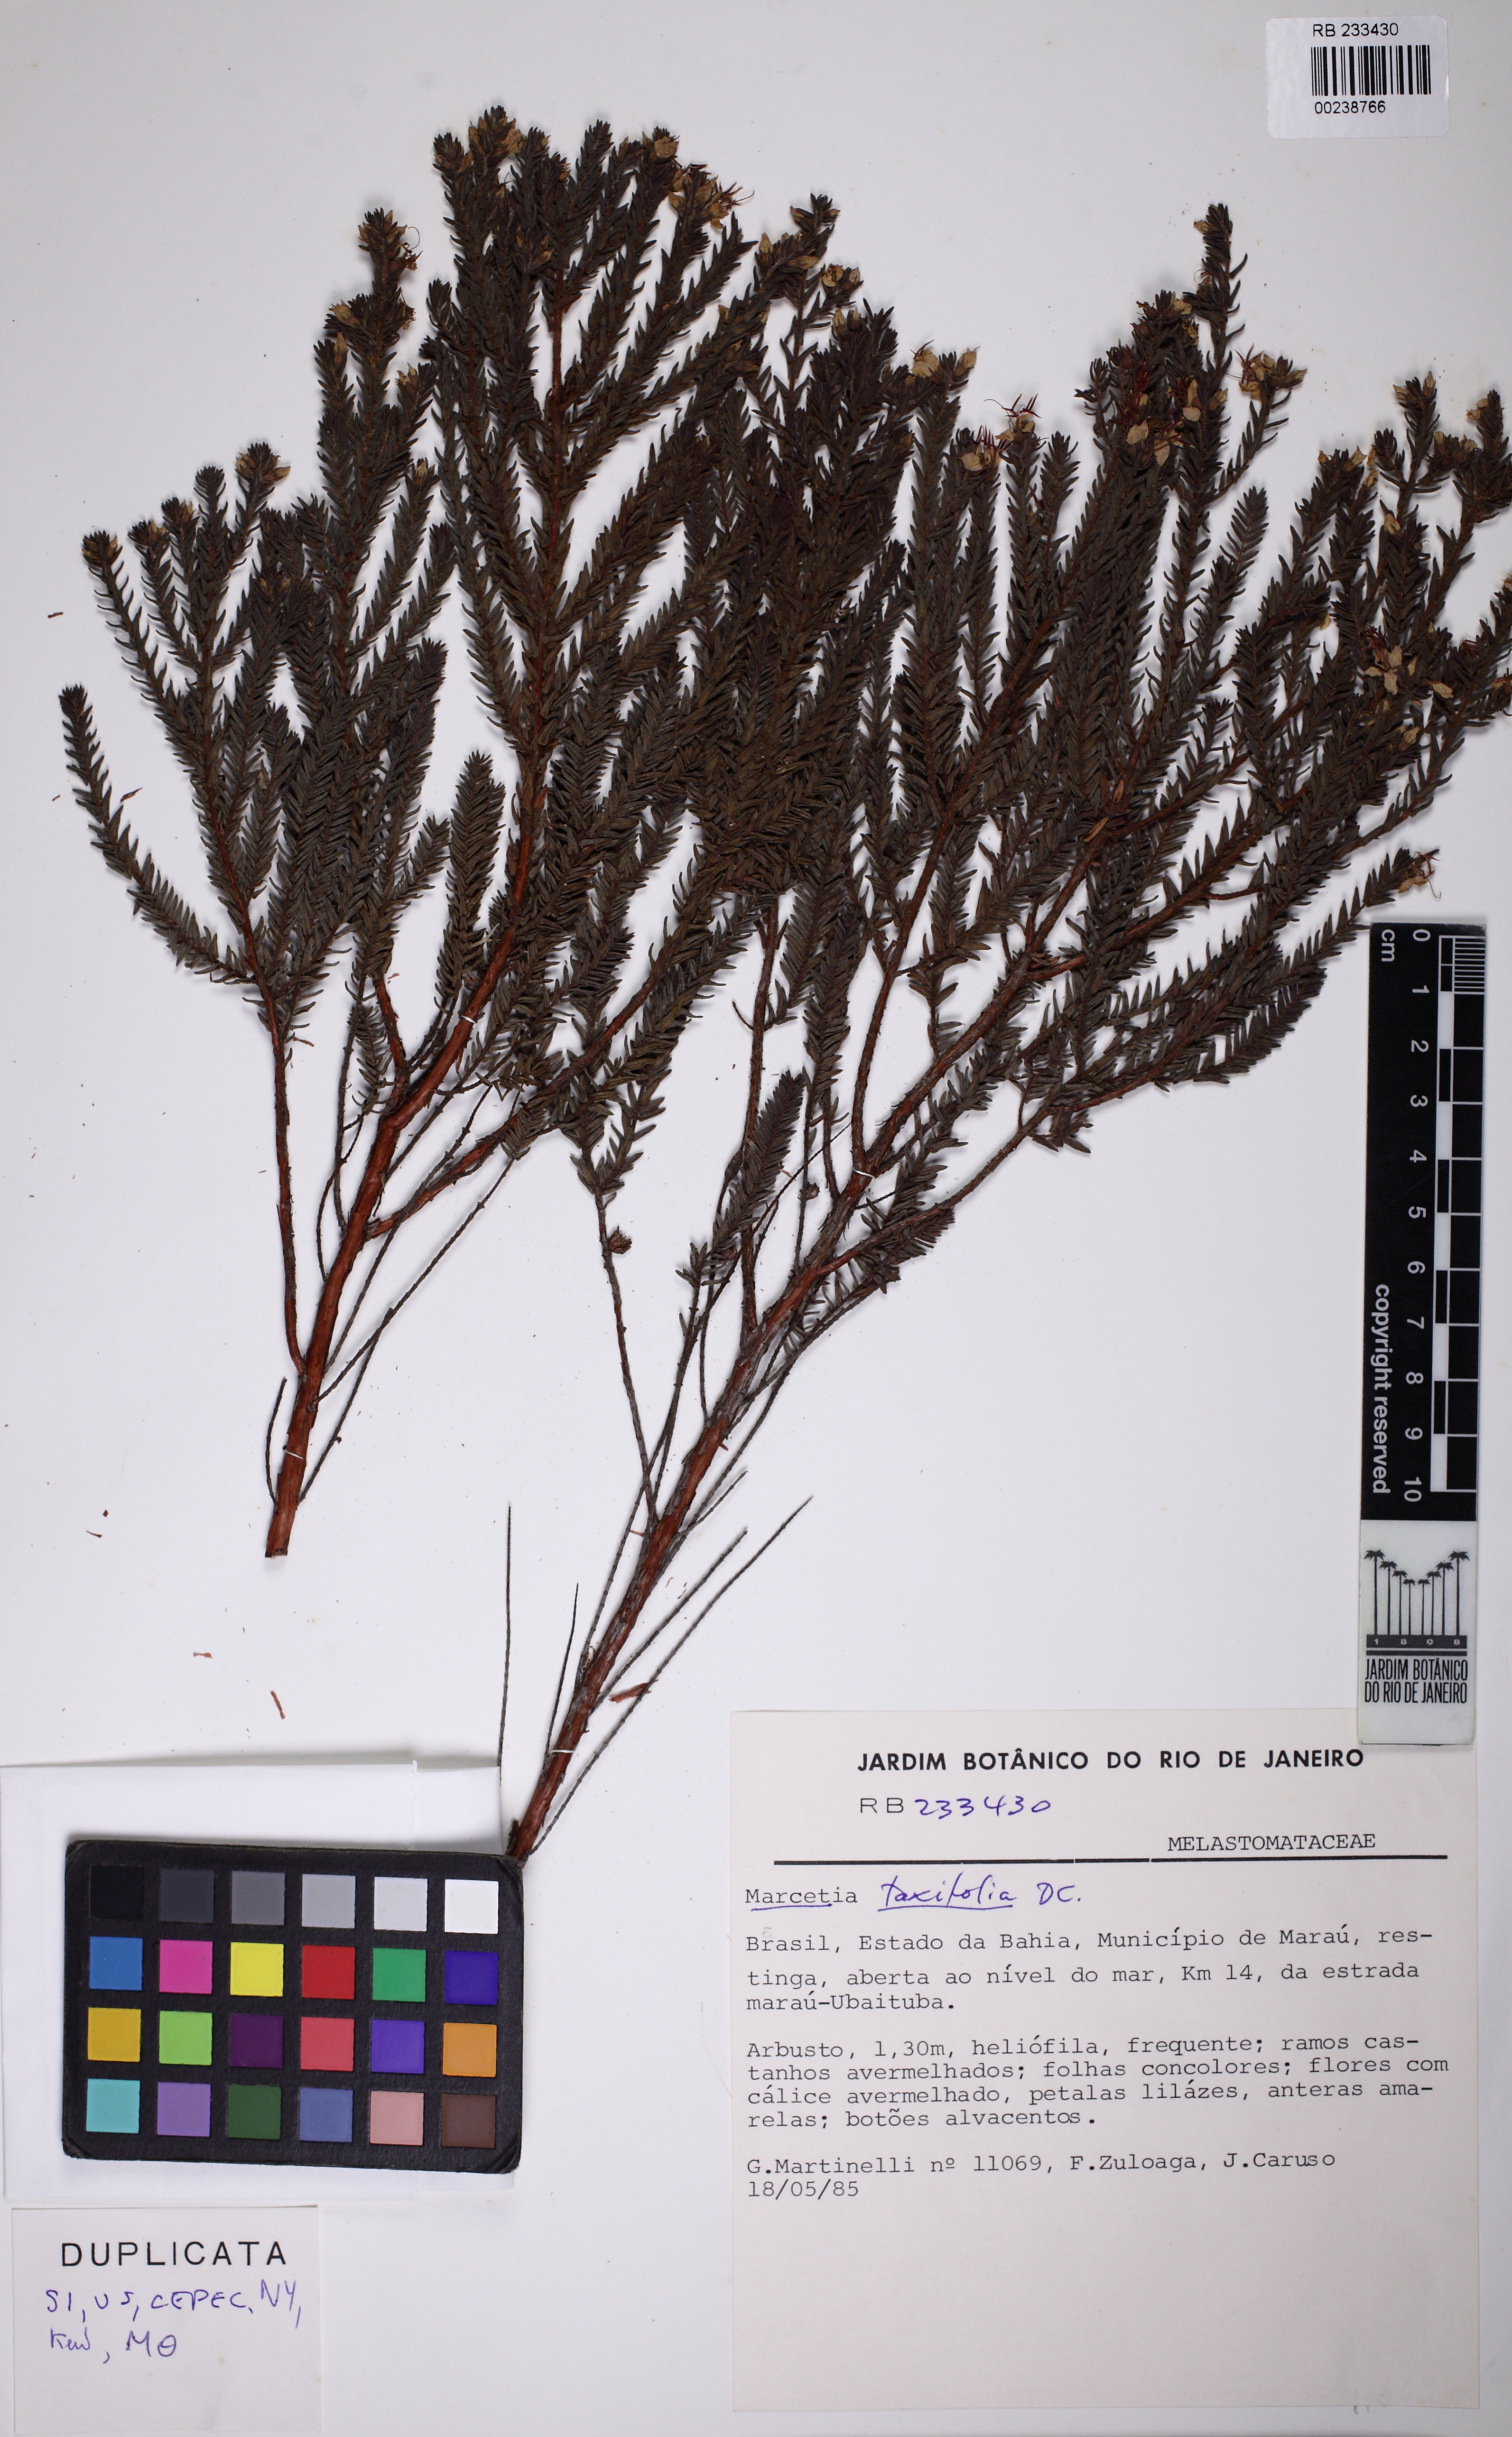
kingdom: Plantae
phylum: Tracheophyta
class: Magnoliopsida
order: Myrtales
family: Melastomataceae
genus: Marcetia
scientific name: Marcetia taxifolia
